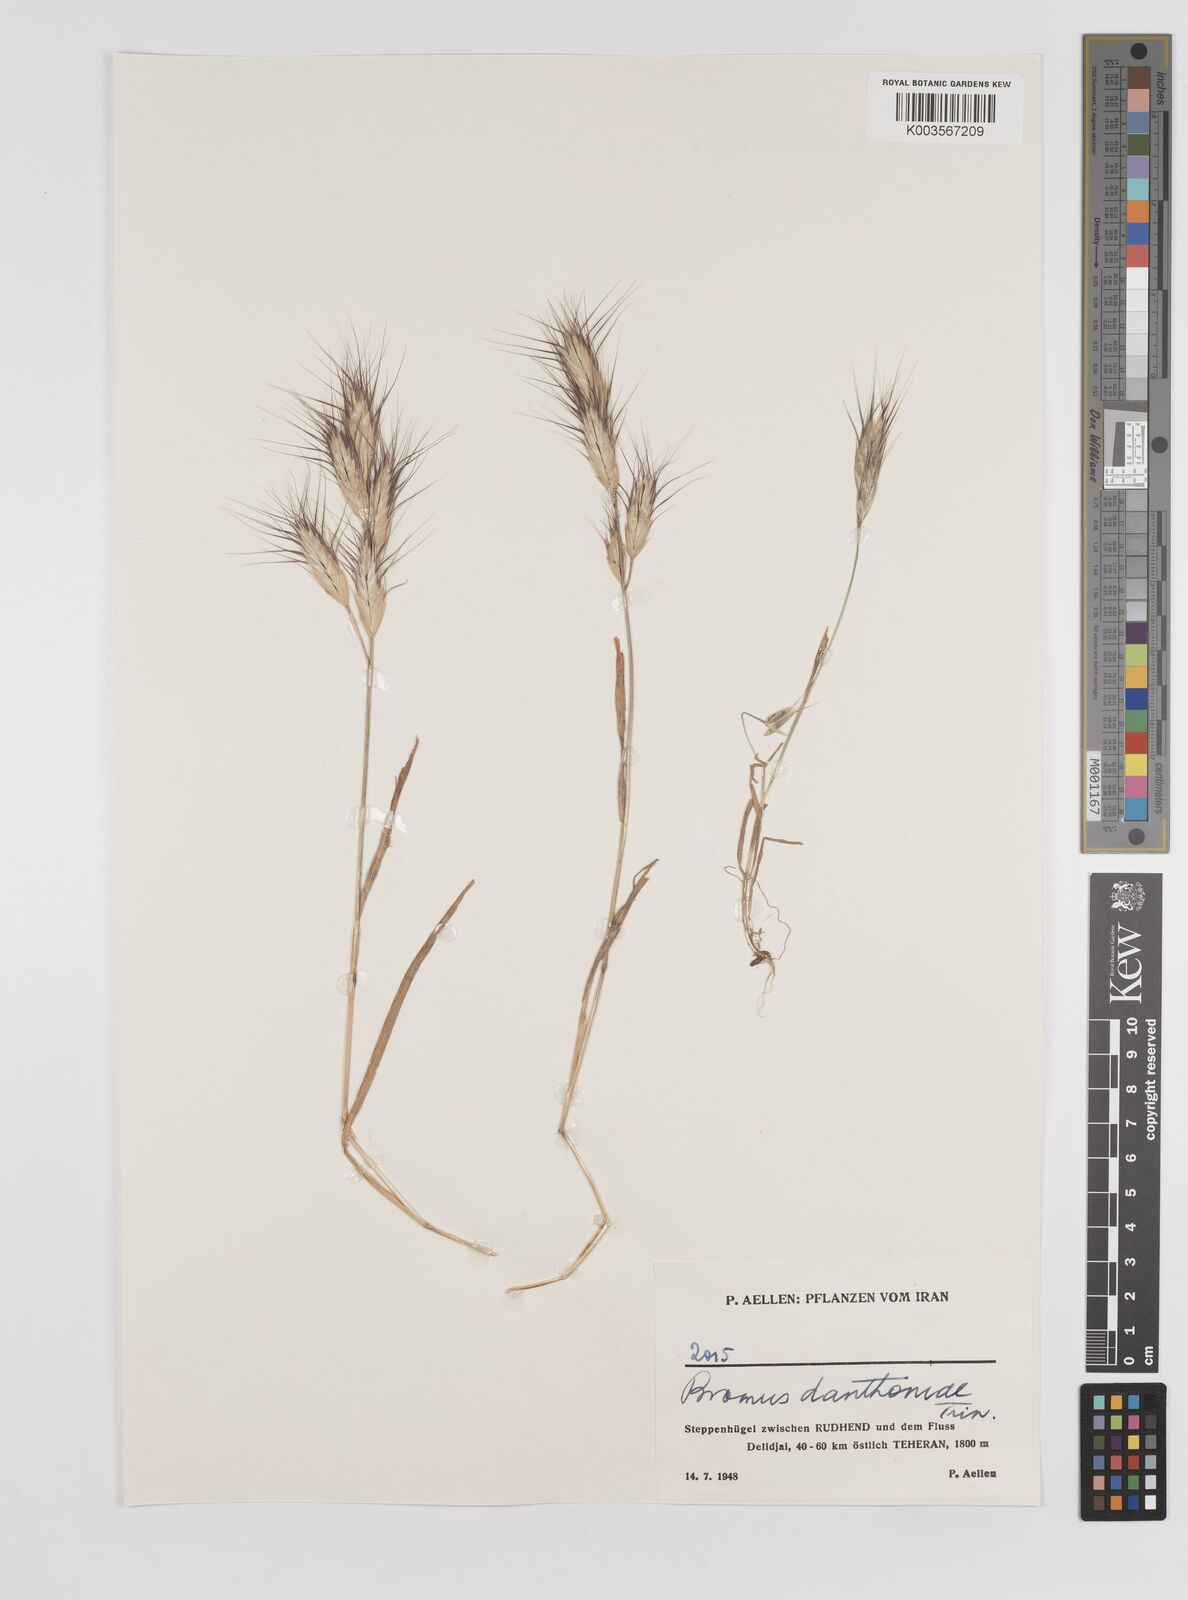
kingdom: Plantae
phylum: Tracheophyta
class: Liliopsida
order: Poales
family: Poaceae
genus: Bromus
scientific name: Bromus danthoniae
